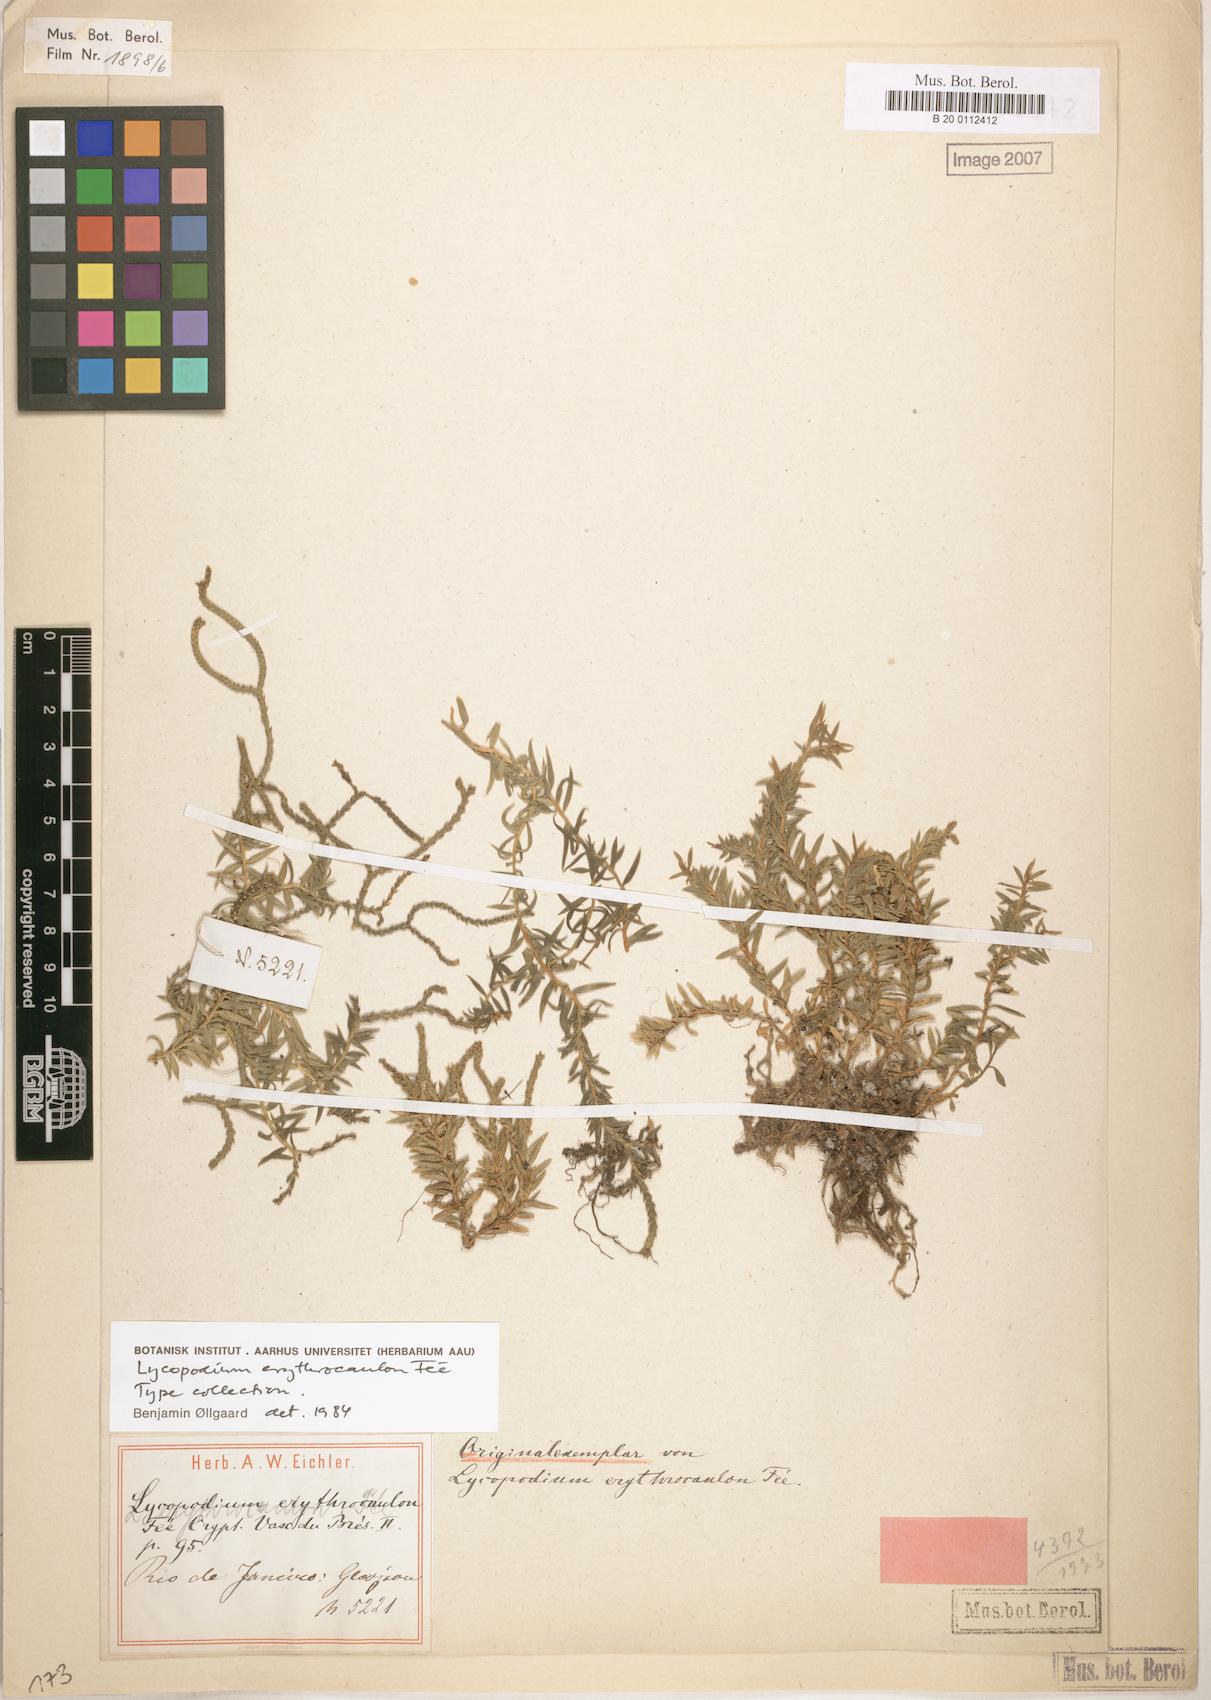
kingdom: Plantae
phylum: Tracheophyta
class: Lycopodiopsida
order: Lycopodiales
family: Lycopodiaceae
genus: Phlegmariurus
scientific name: Phlegmariurus erythrocaulos
